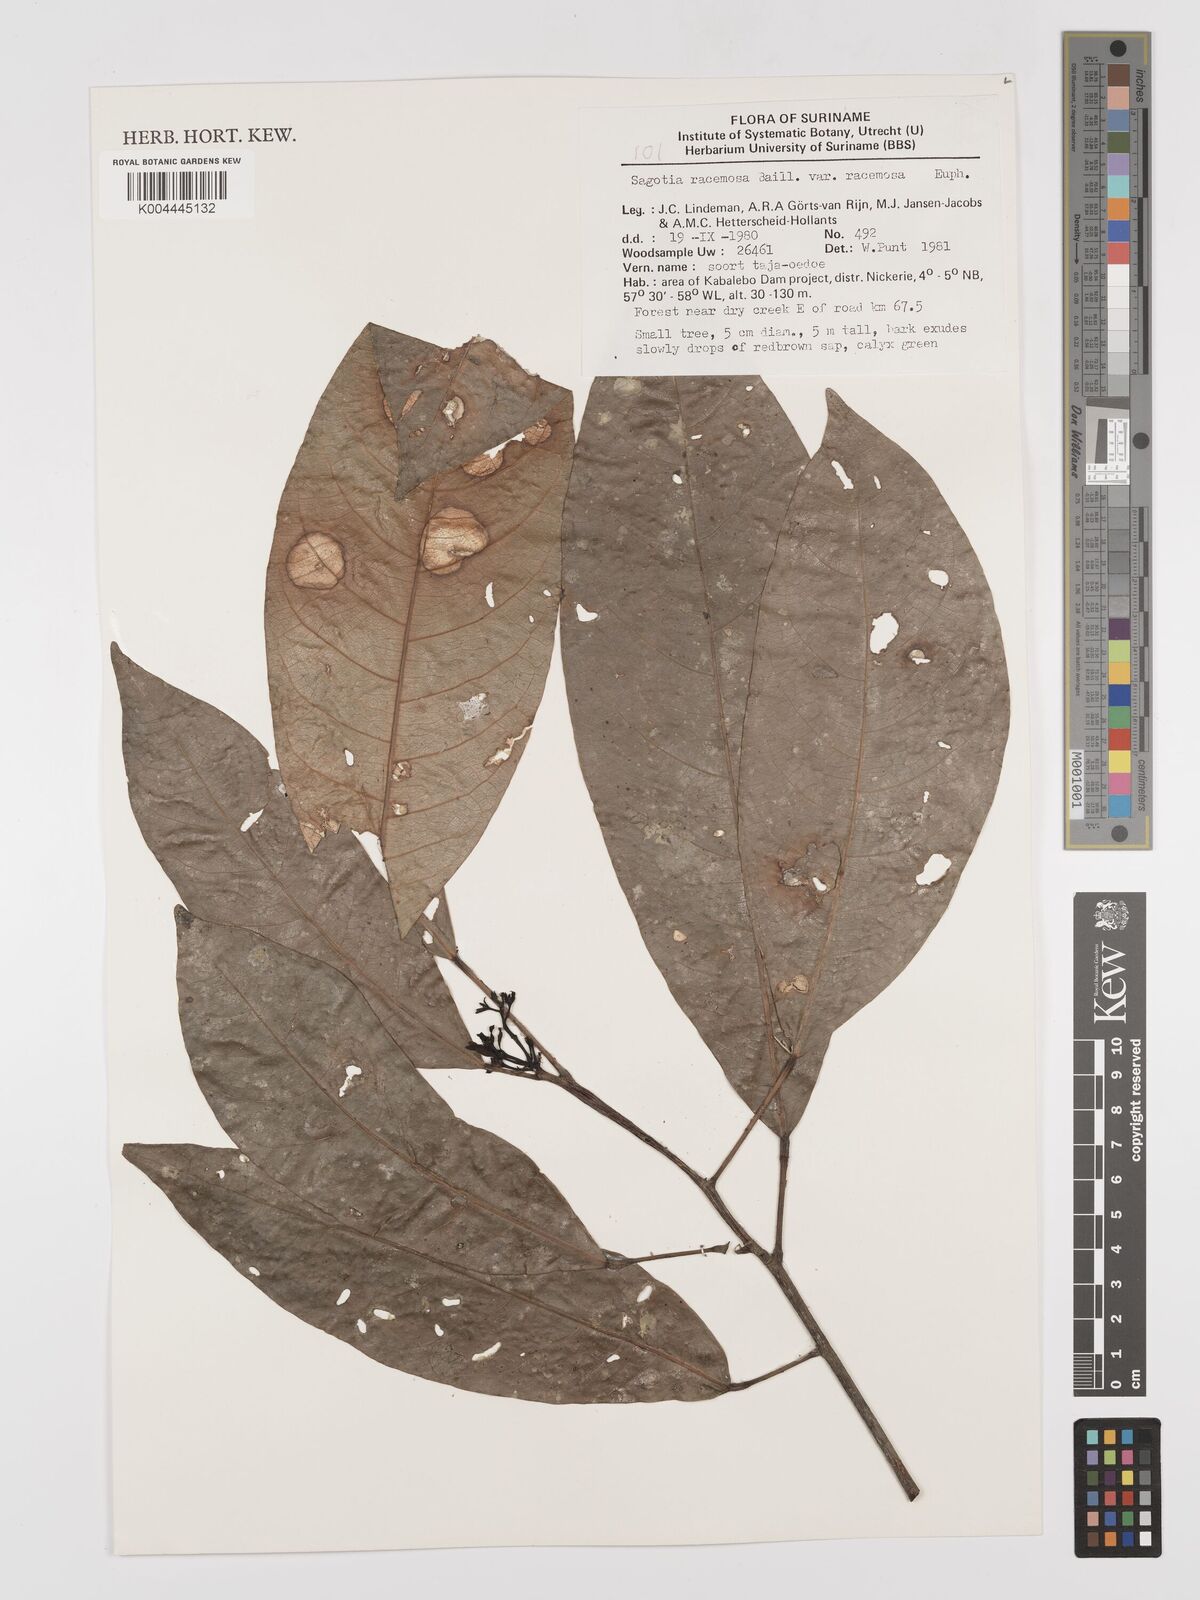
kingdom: Plantae
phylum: Tracheophyta
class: Magnoliopsida
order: Malpighiales
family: Euphorbiaceae
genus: Sagotia
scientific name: Sagotia racemosa
